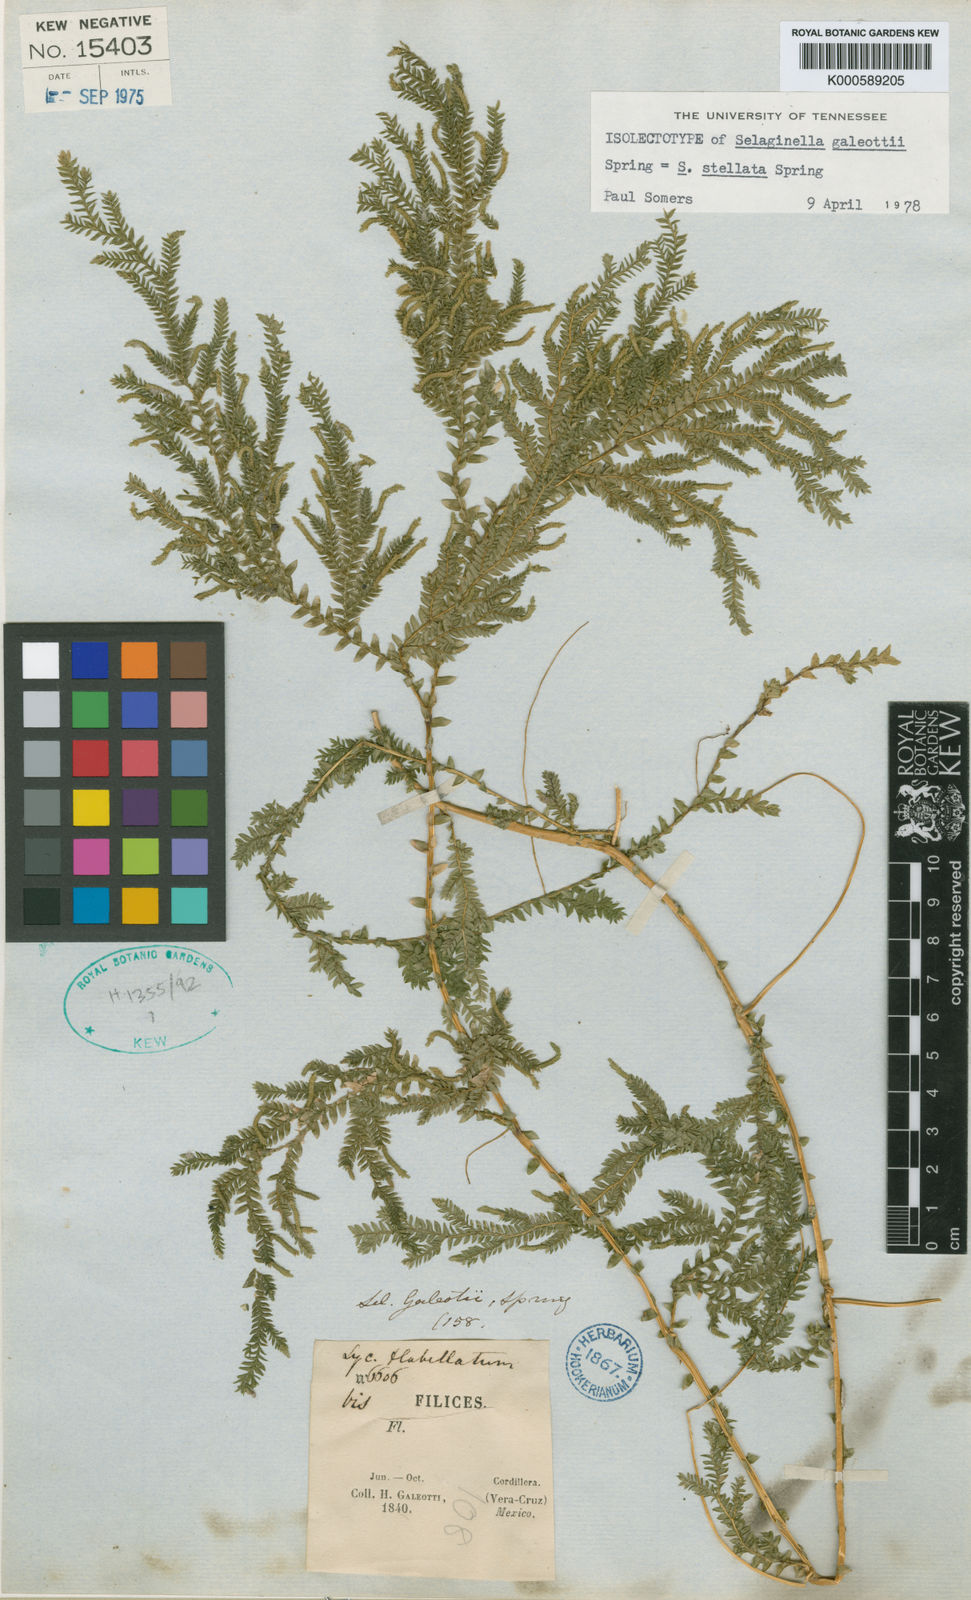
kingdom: Plantae
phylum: Tracheophyta
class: Lycopodiopsida
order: Selaginellales
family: Selaginellaceae
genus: Selaginella
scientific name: Selaginella stellata
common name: Starry spikemoss
